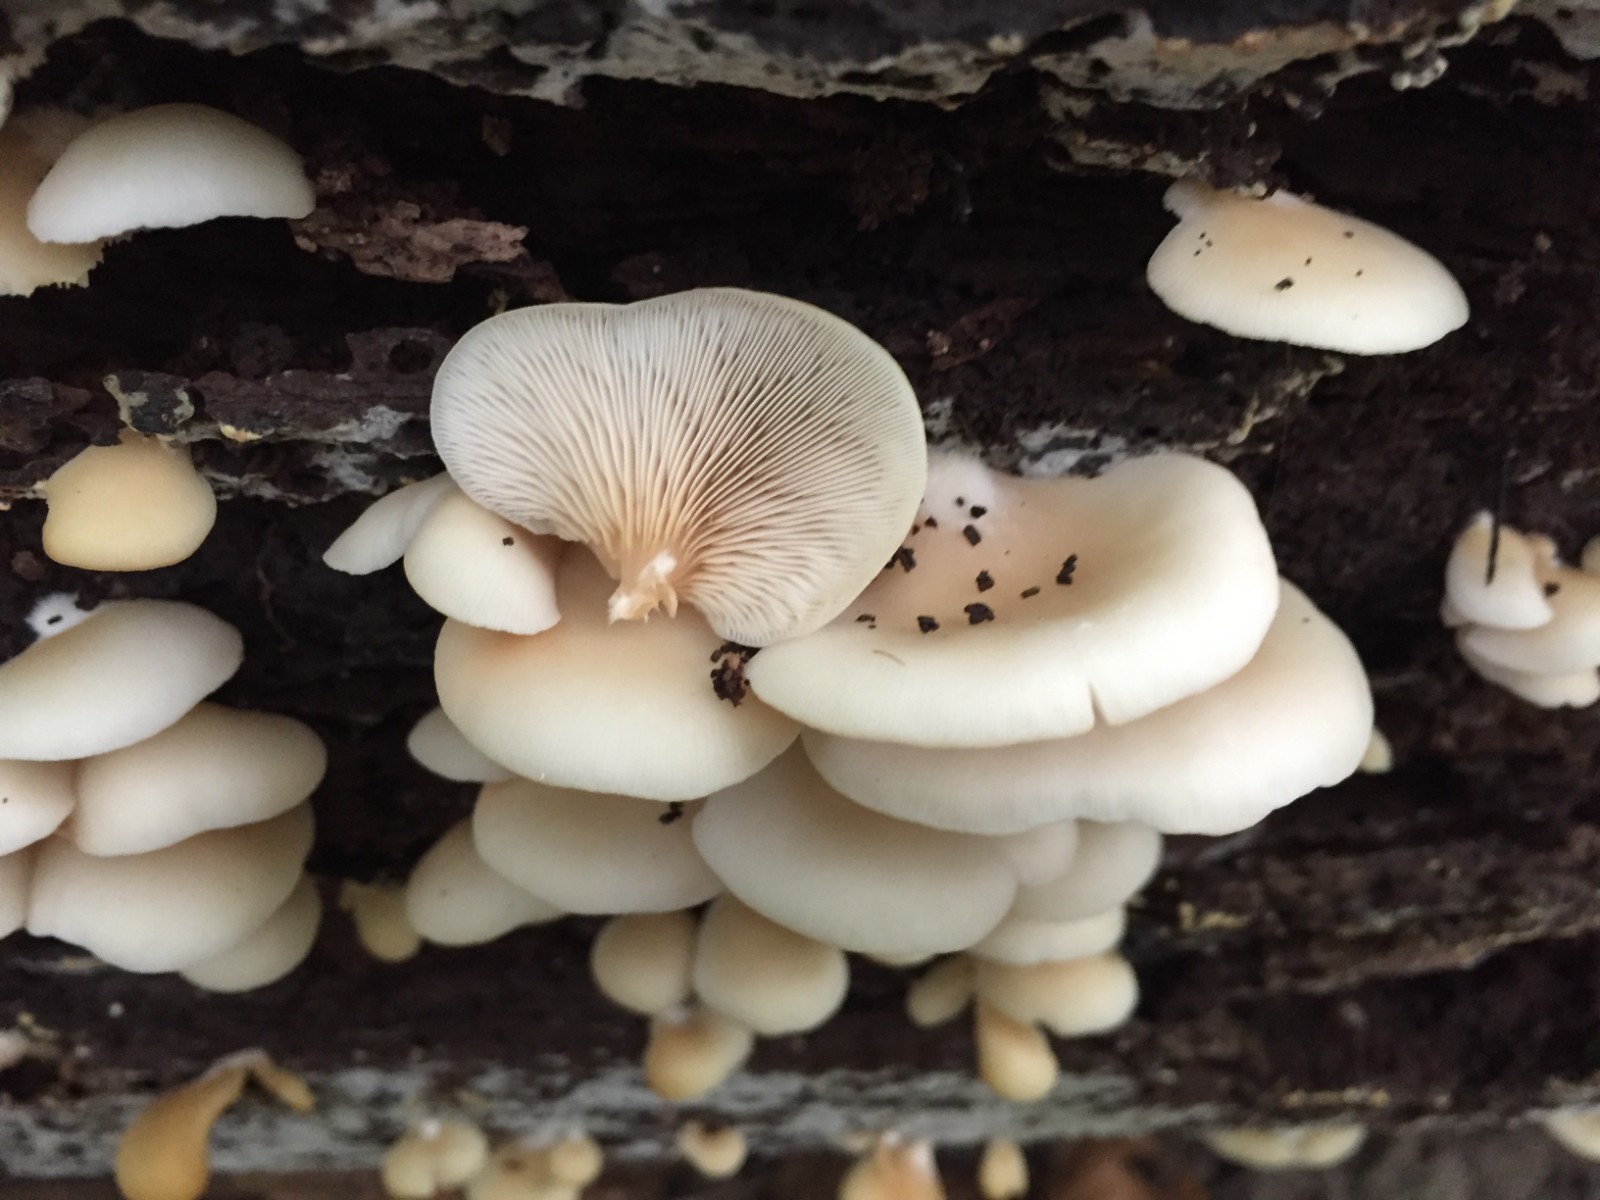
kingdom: Fungi
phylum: Basidiomycota
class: Agaricomycetes
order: Agaricales
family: Crepidotaceae
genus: Crepidotus
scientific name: Crepidotus applanatus
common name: tvefarvet muslingesvamp
